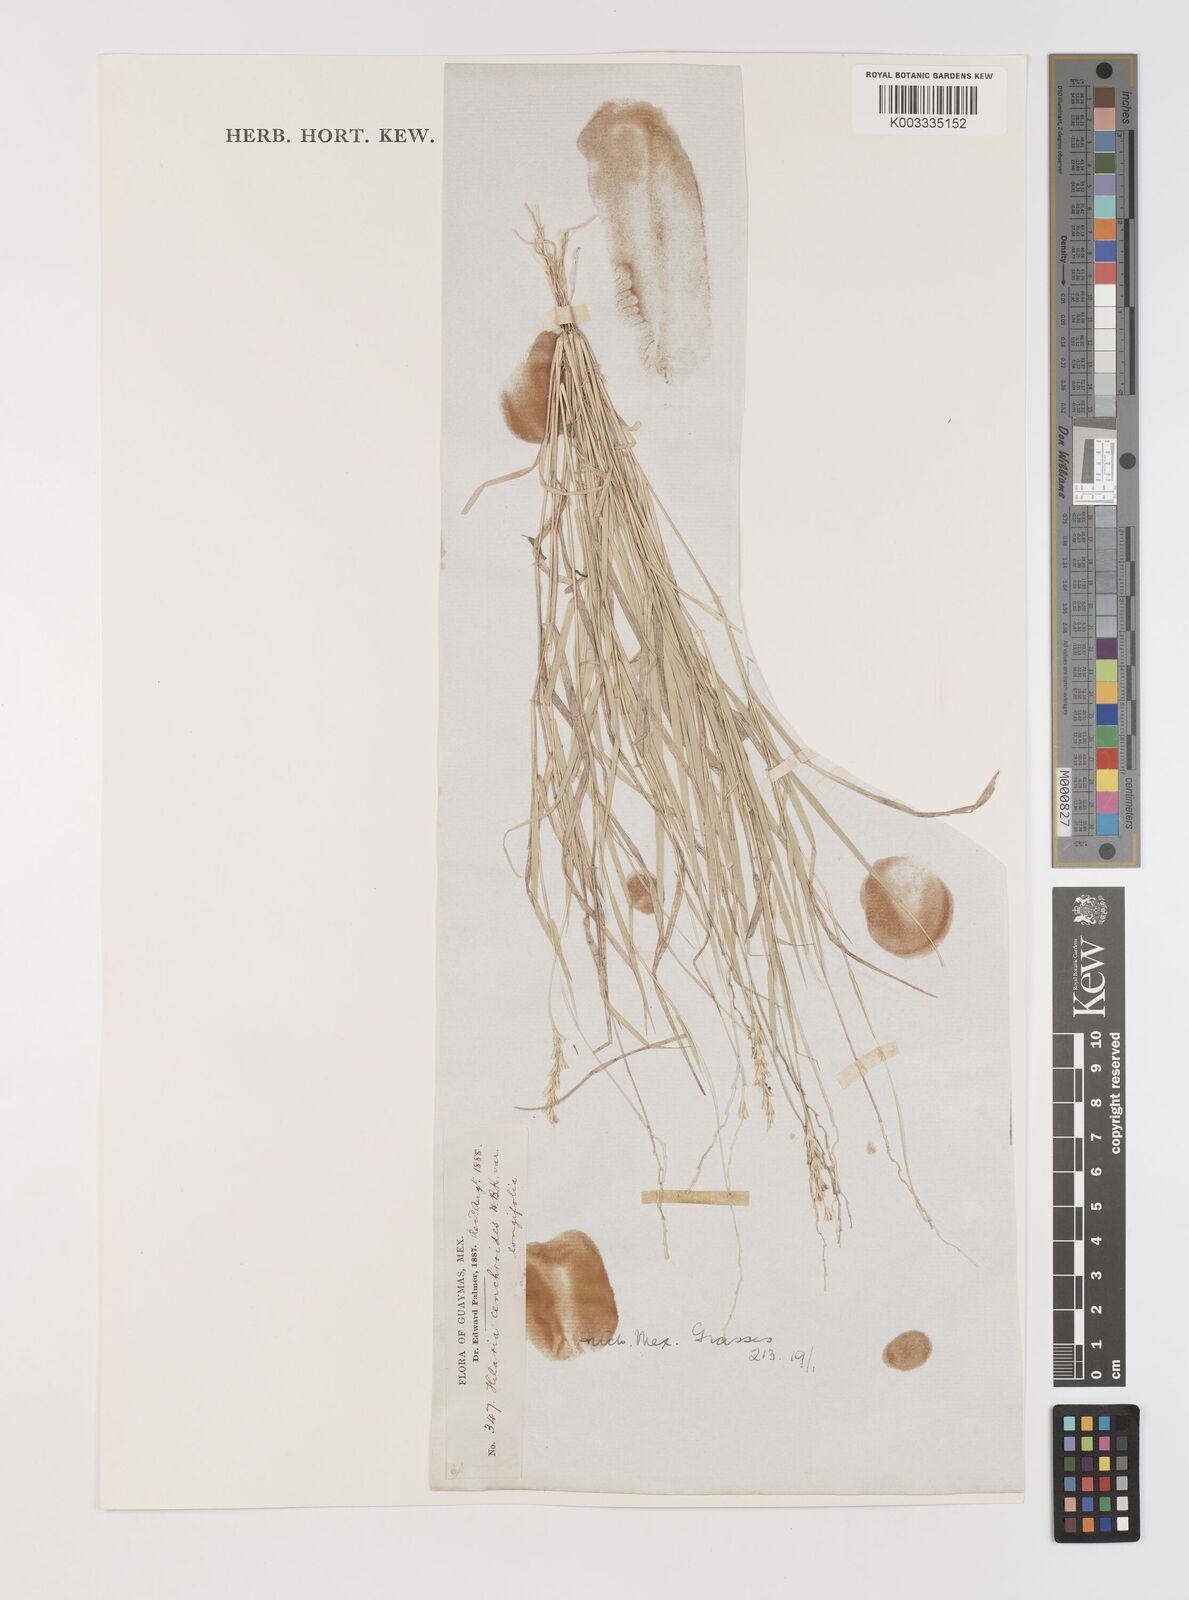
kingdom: Plantae
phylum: Tracheophyta
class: Liliopsida
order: Poales
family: Poaceae
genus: Hilaria
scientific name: Hilaria belangeri
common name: Curly-mesquite
